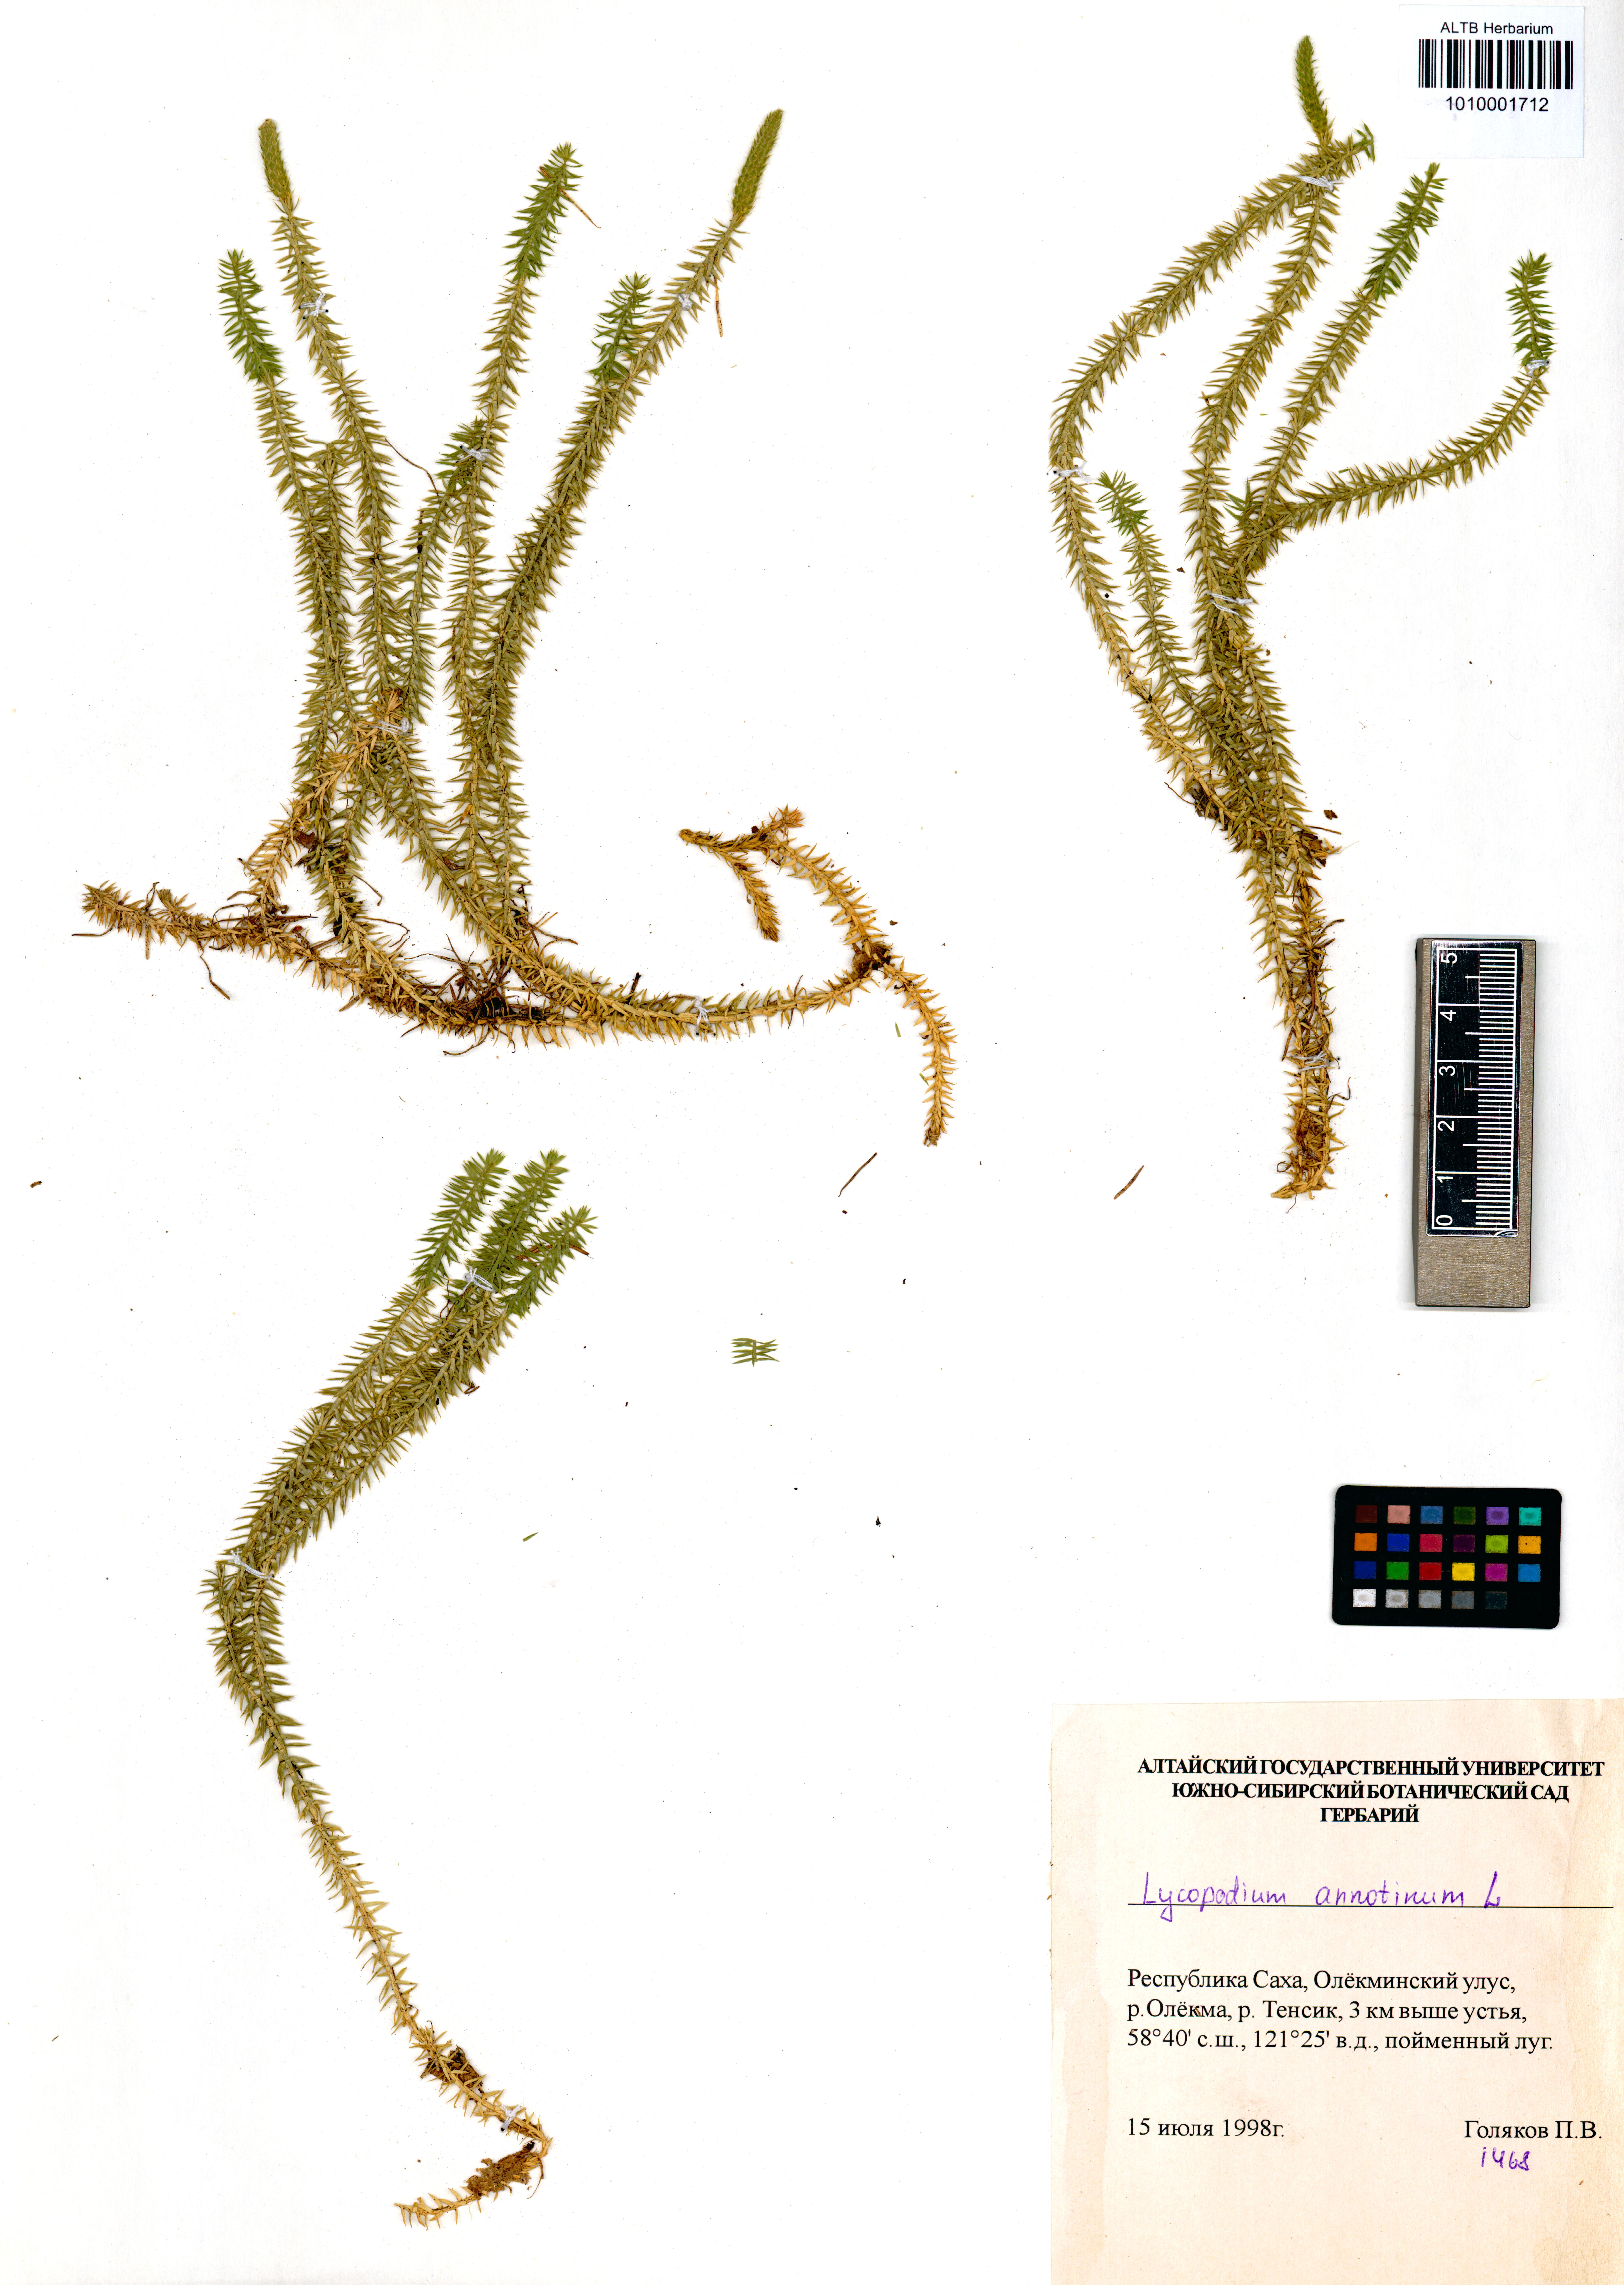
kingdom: Plantae
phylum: Tracheophyta
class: Lycopodiopsida
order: Lycopodiales
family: Lycopodiaceae
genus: Spinulum
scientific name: Spinulum annotinum
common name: Interrupted club-moss
